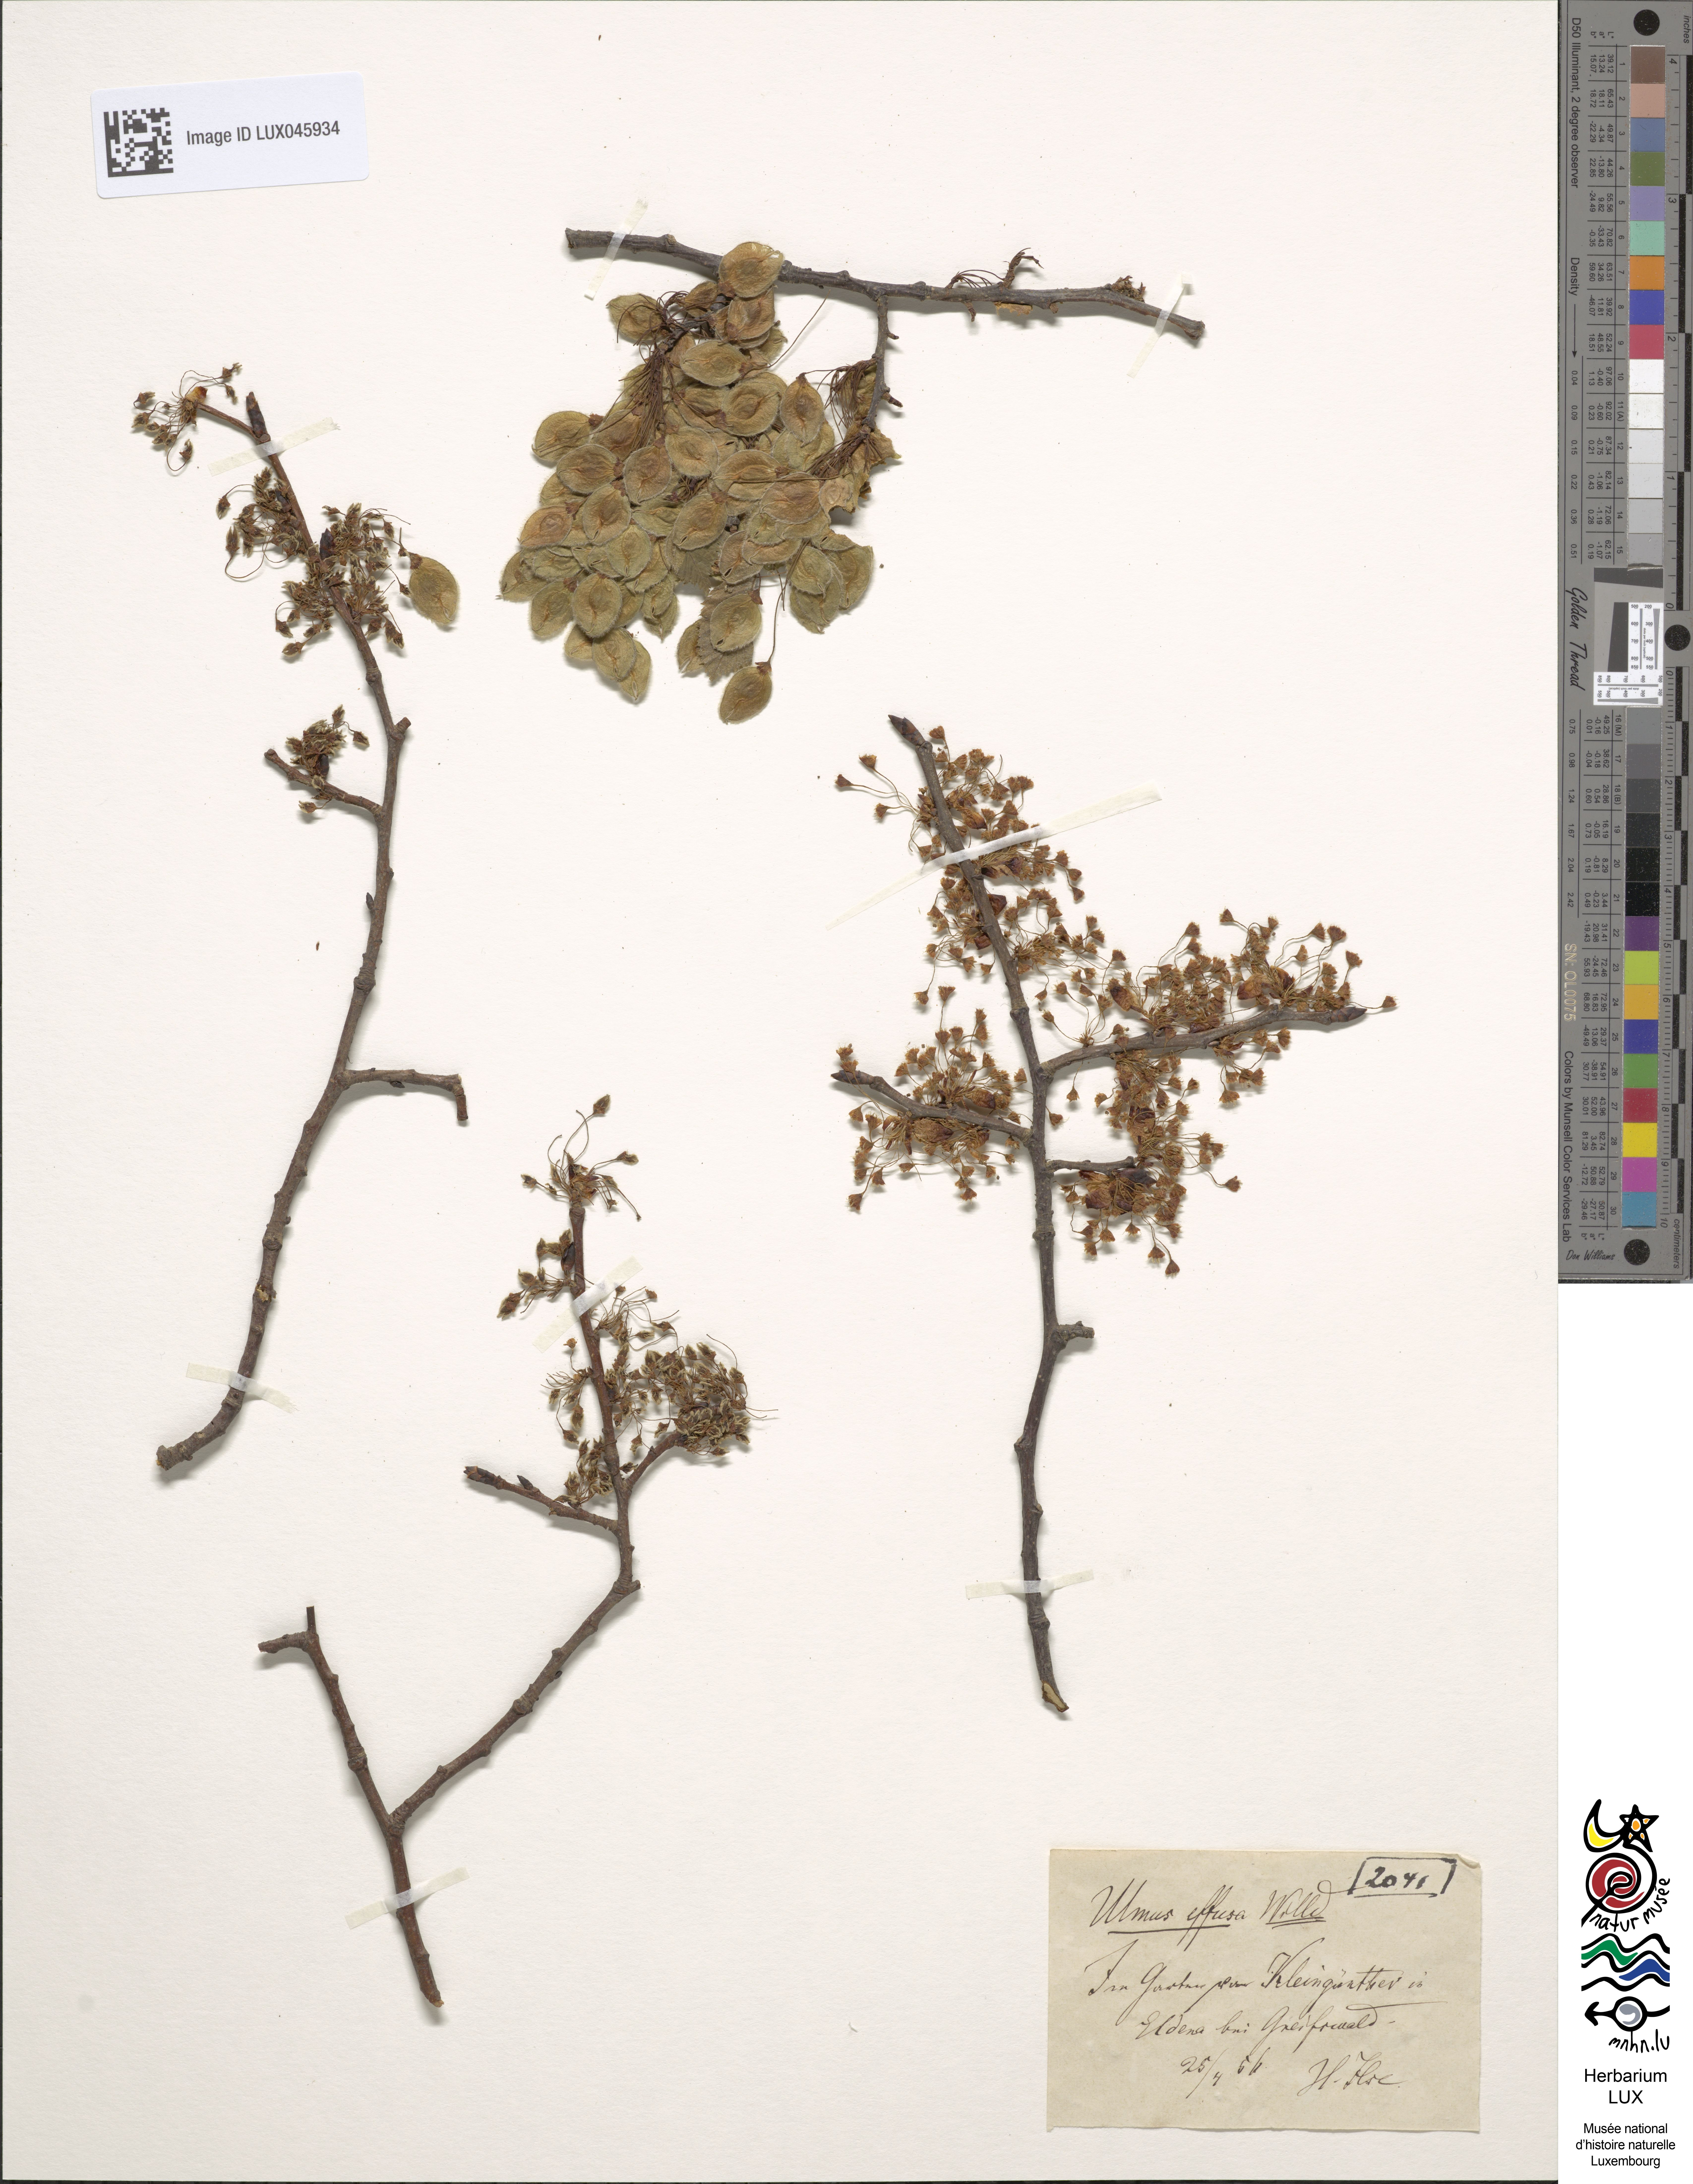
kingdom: Plantae
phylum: Tracheophyta
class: Magnoliopsida
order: Rosales
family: Ulmaceae
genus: Ulmus
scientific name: Ulmus laevis
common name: European white-elm
